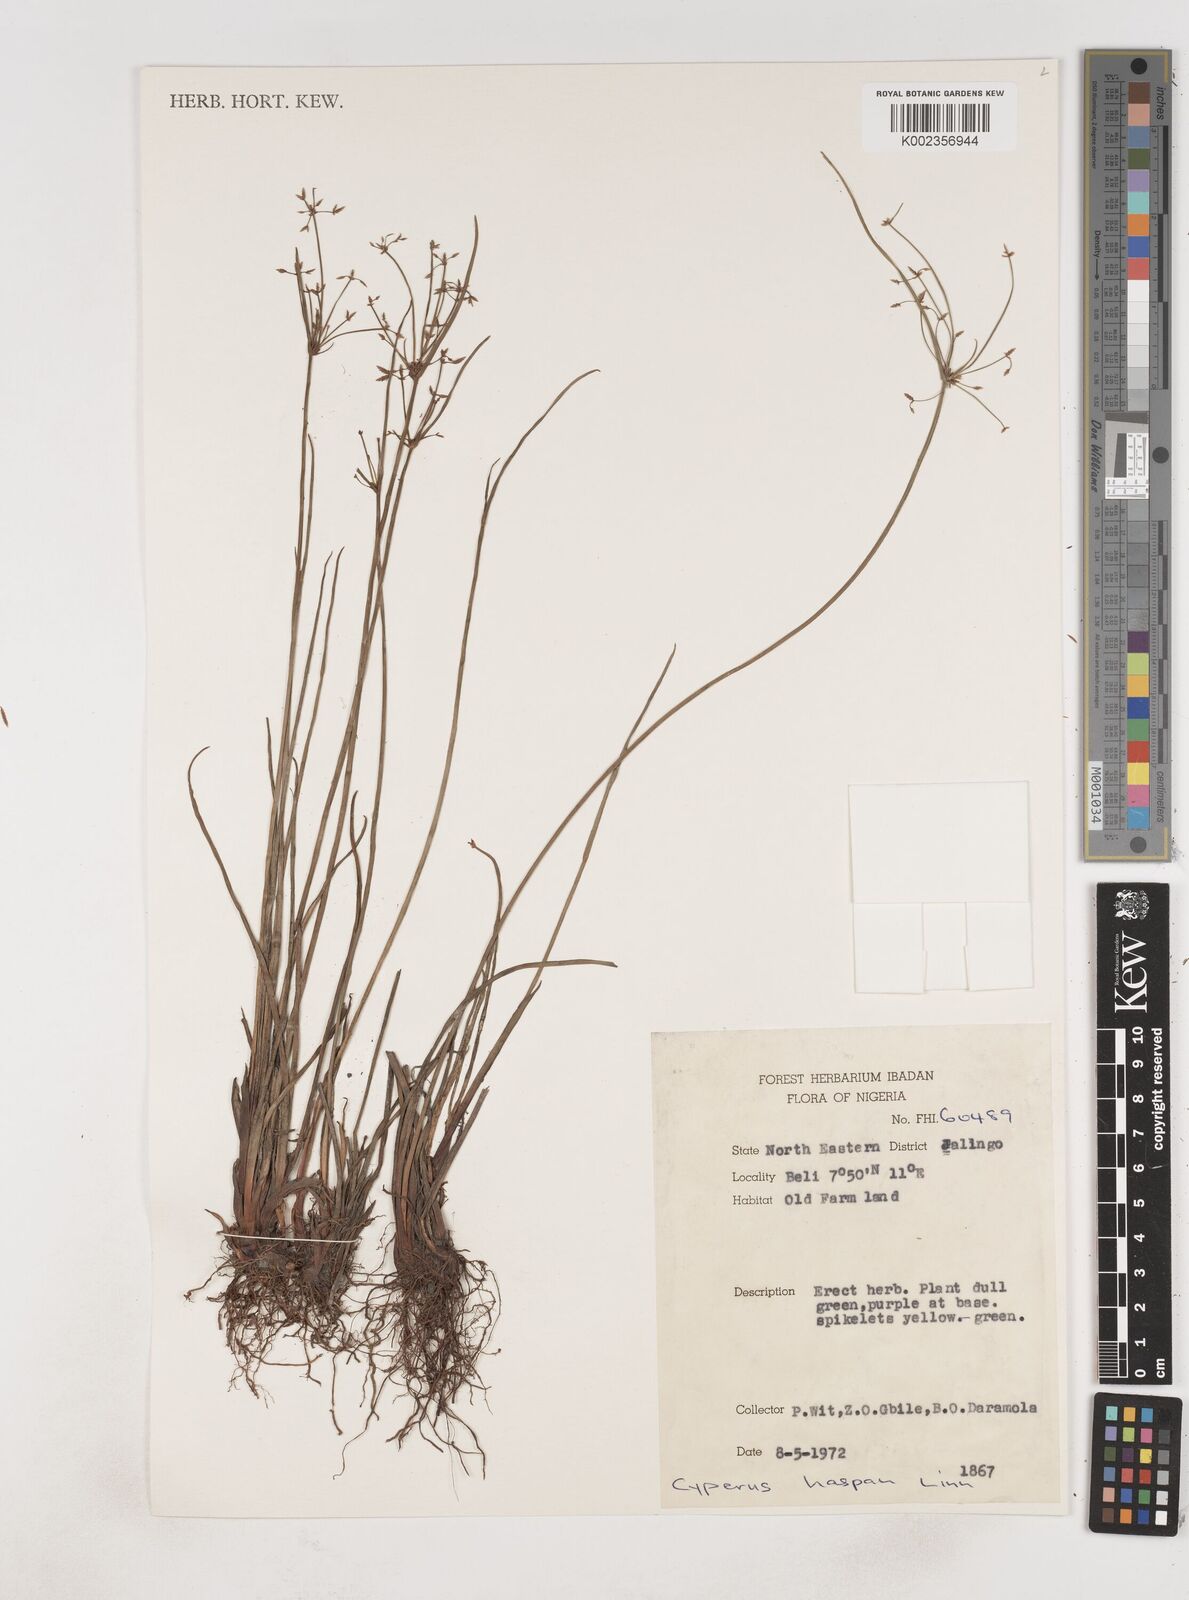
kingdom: Plantae
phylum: Tracheophyta
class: Liliopsida
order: Poales
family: Cyperaceae
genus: Cyperus
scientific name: Cyperus haspan
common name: Haspan flatsedge
